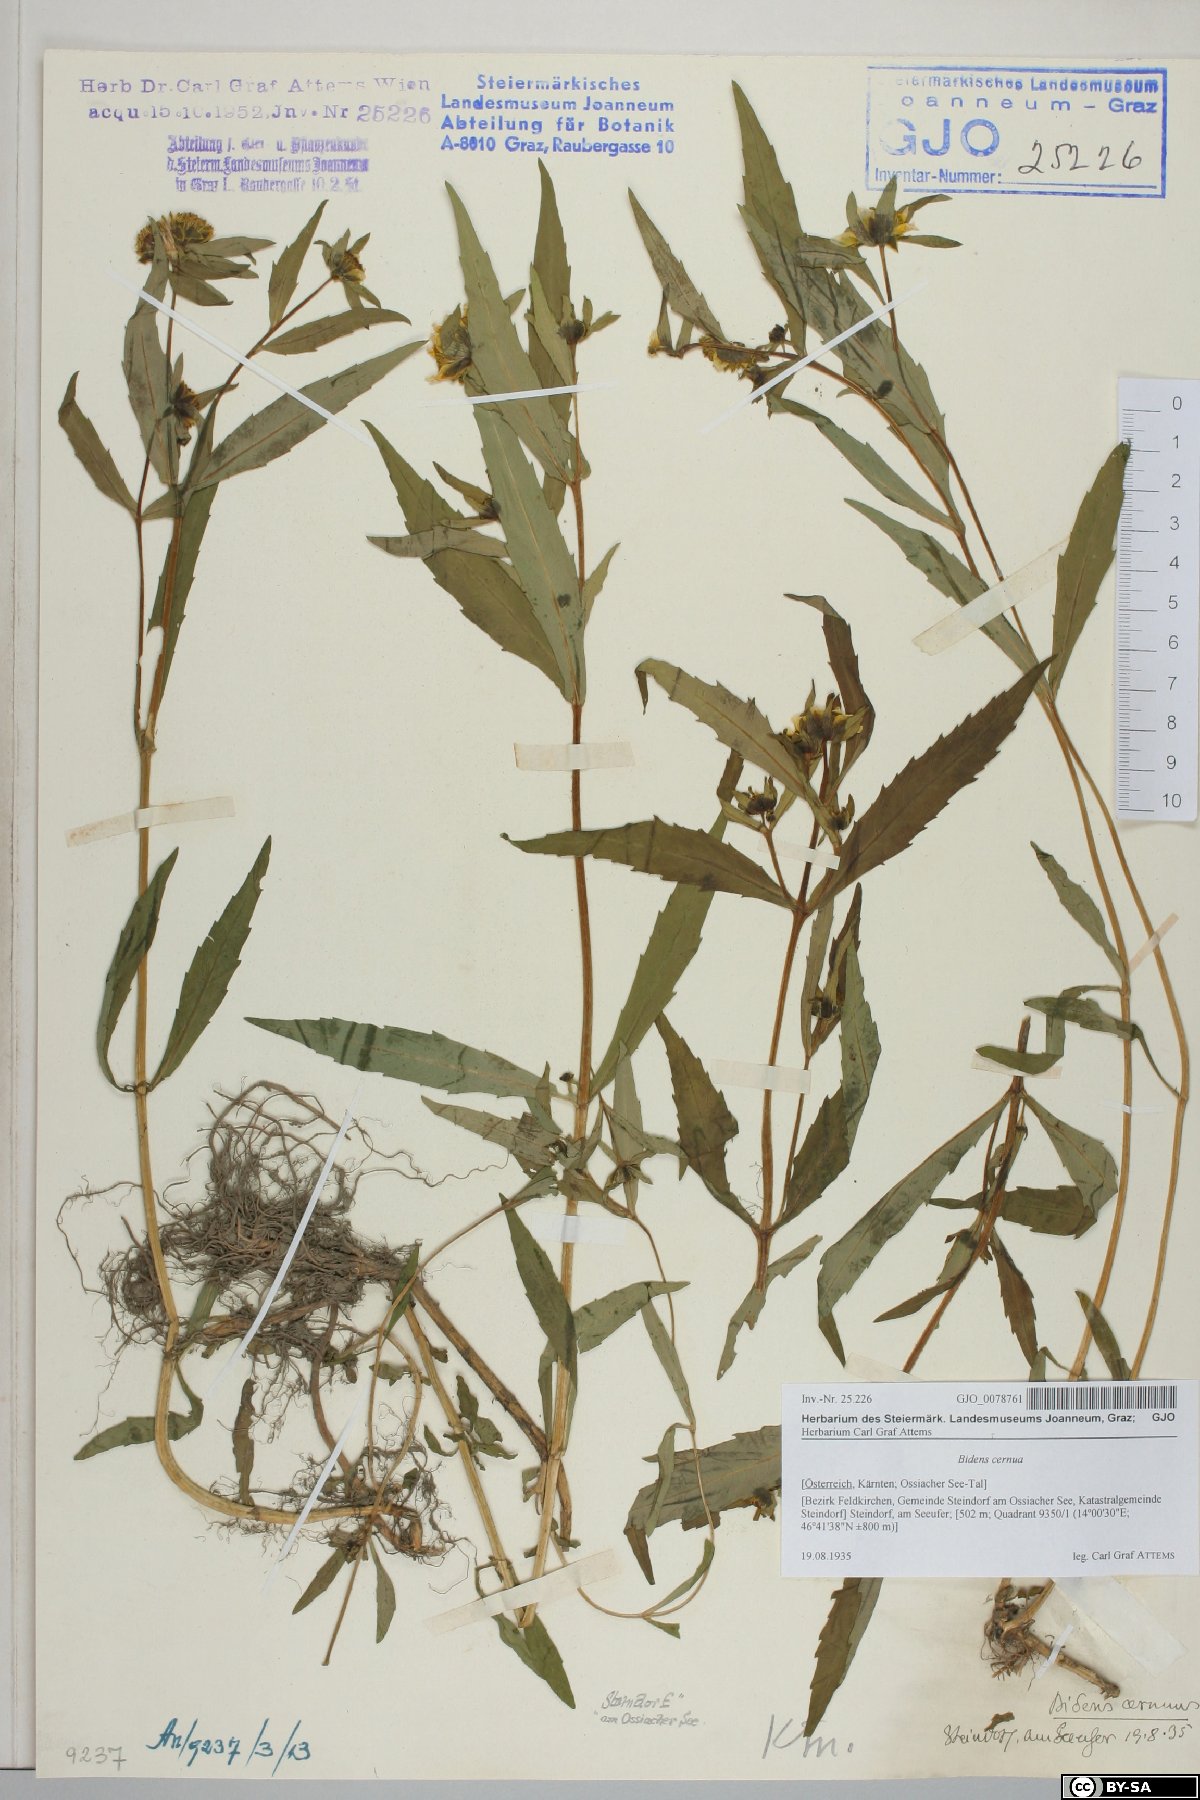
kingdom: Plantae
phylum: Tracheophyta
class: Magnoliopsida
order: Asterales
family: Asteraceae
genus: Bidens
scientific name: Bidens cernua
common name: Nodding bur-marigold
